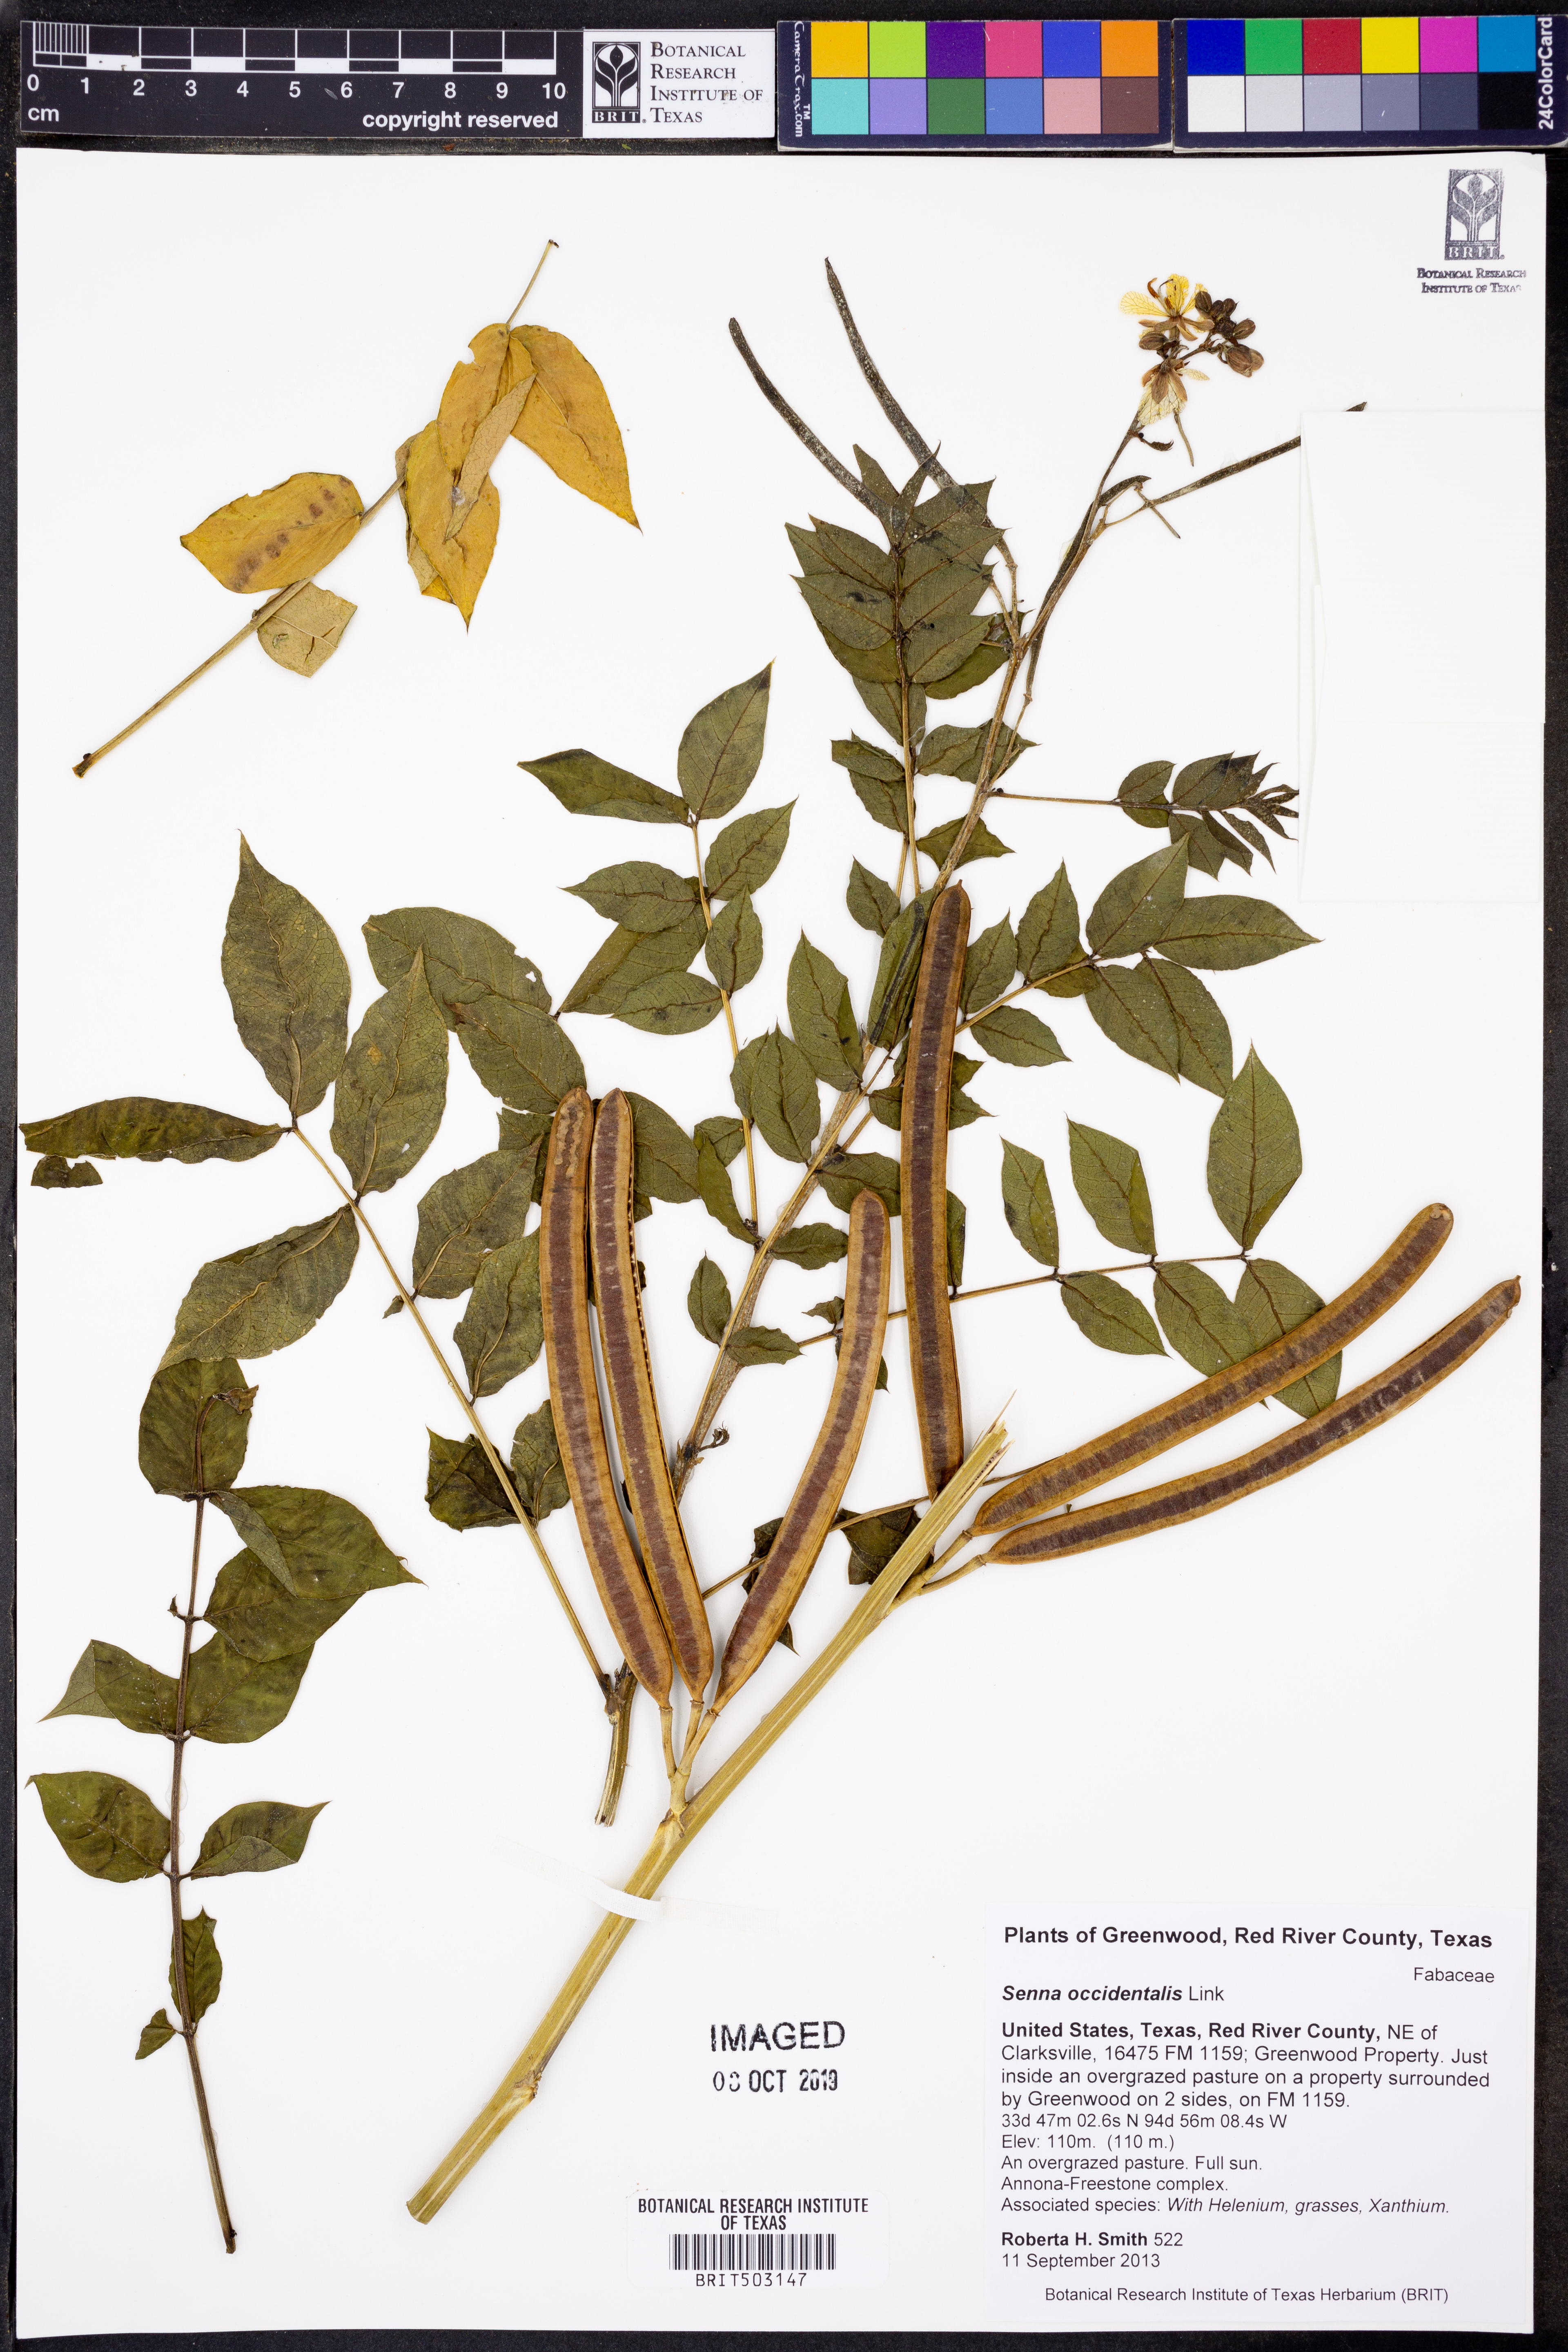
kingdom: Plantae
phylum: Tracheophyta
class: Magnoliopsida
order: Fabales
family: Fabaceae
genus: Senna
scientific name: Senna occidentalis
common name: Septicweed
